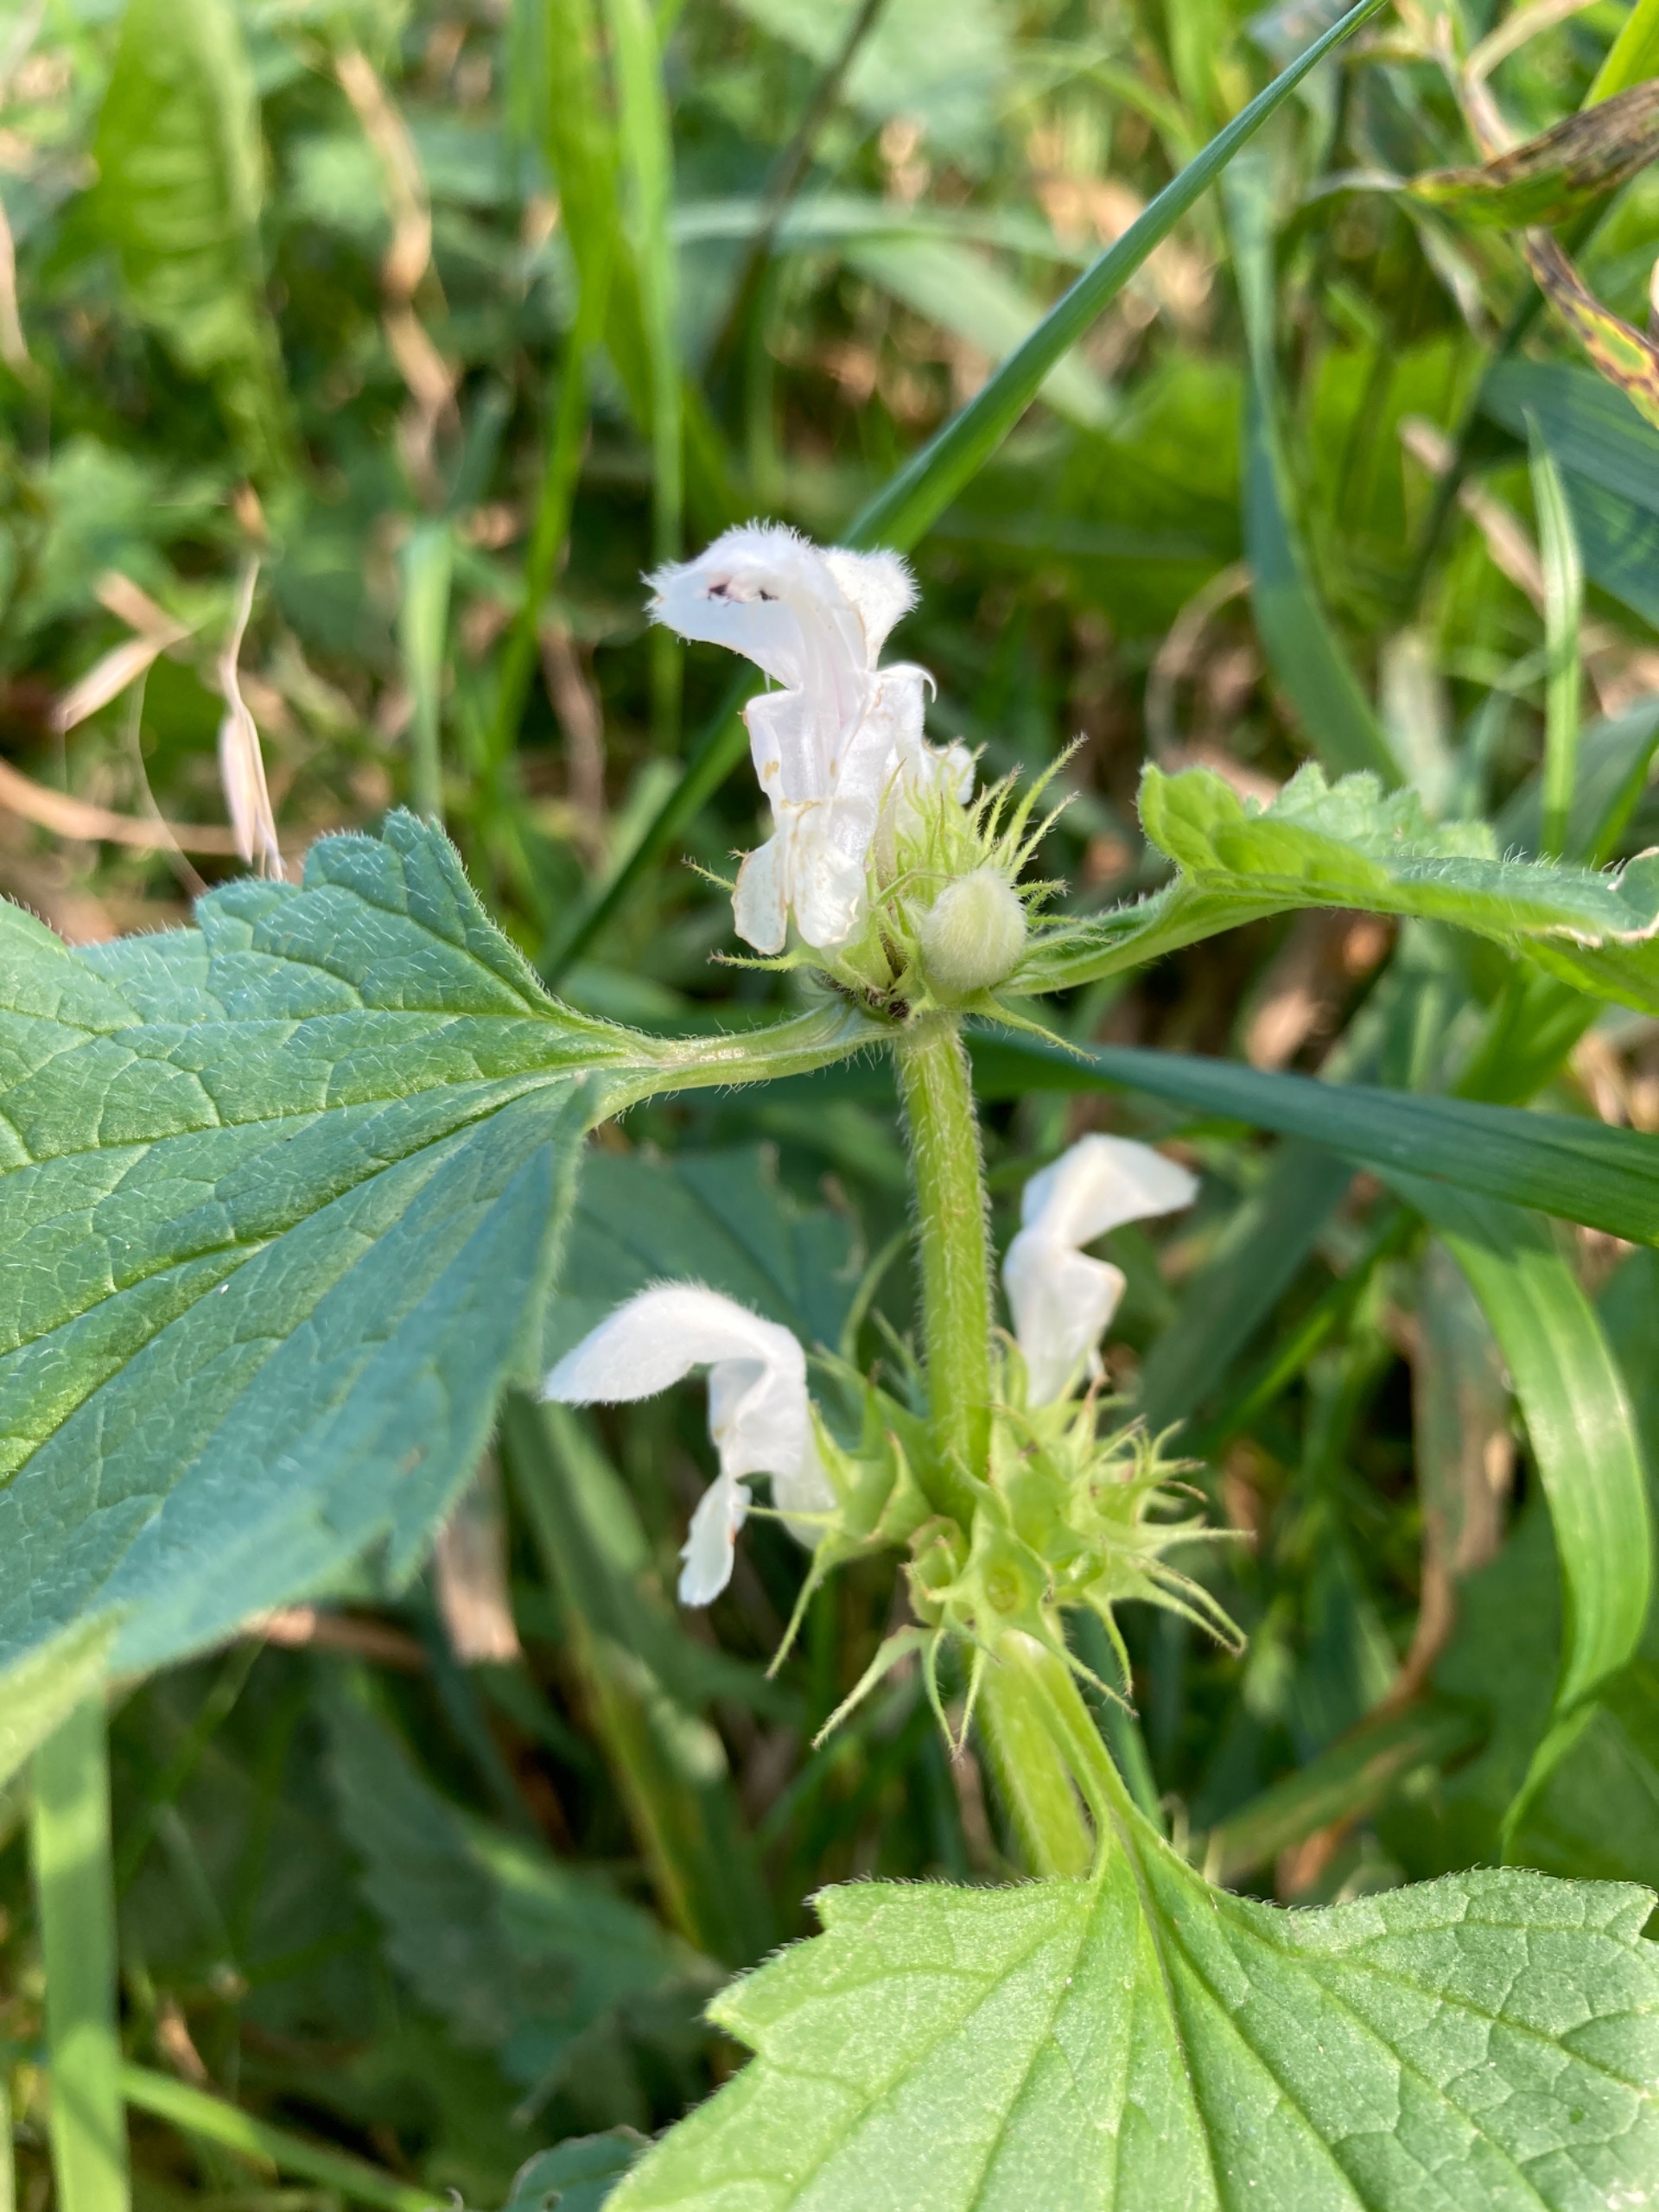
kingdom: Plantae
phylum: Tracheophyta
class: Magnoliopsida
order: Lamiales
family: Lamiaceae
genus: Lamium
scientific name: Lamium album
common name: Døvnælde
